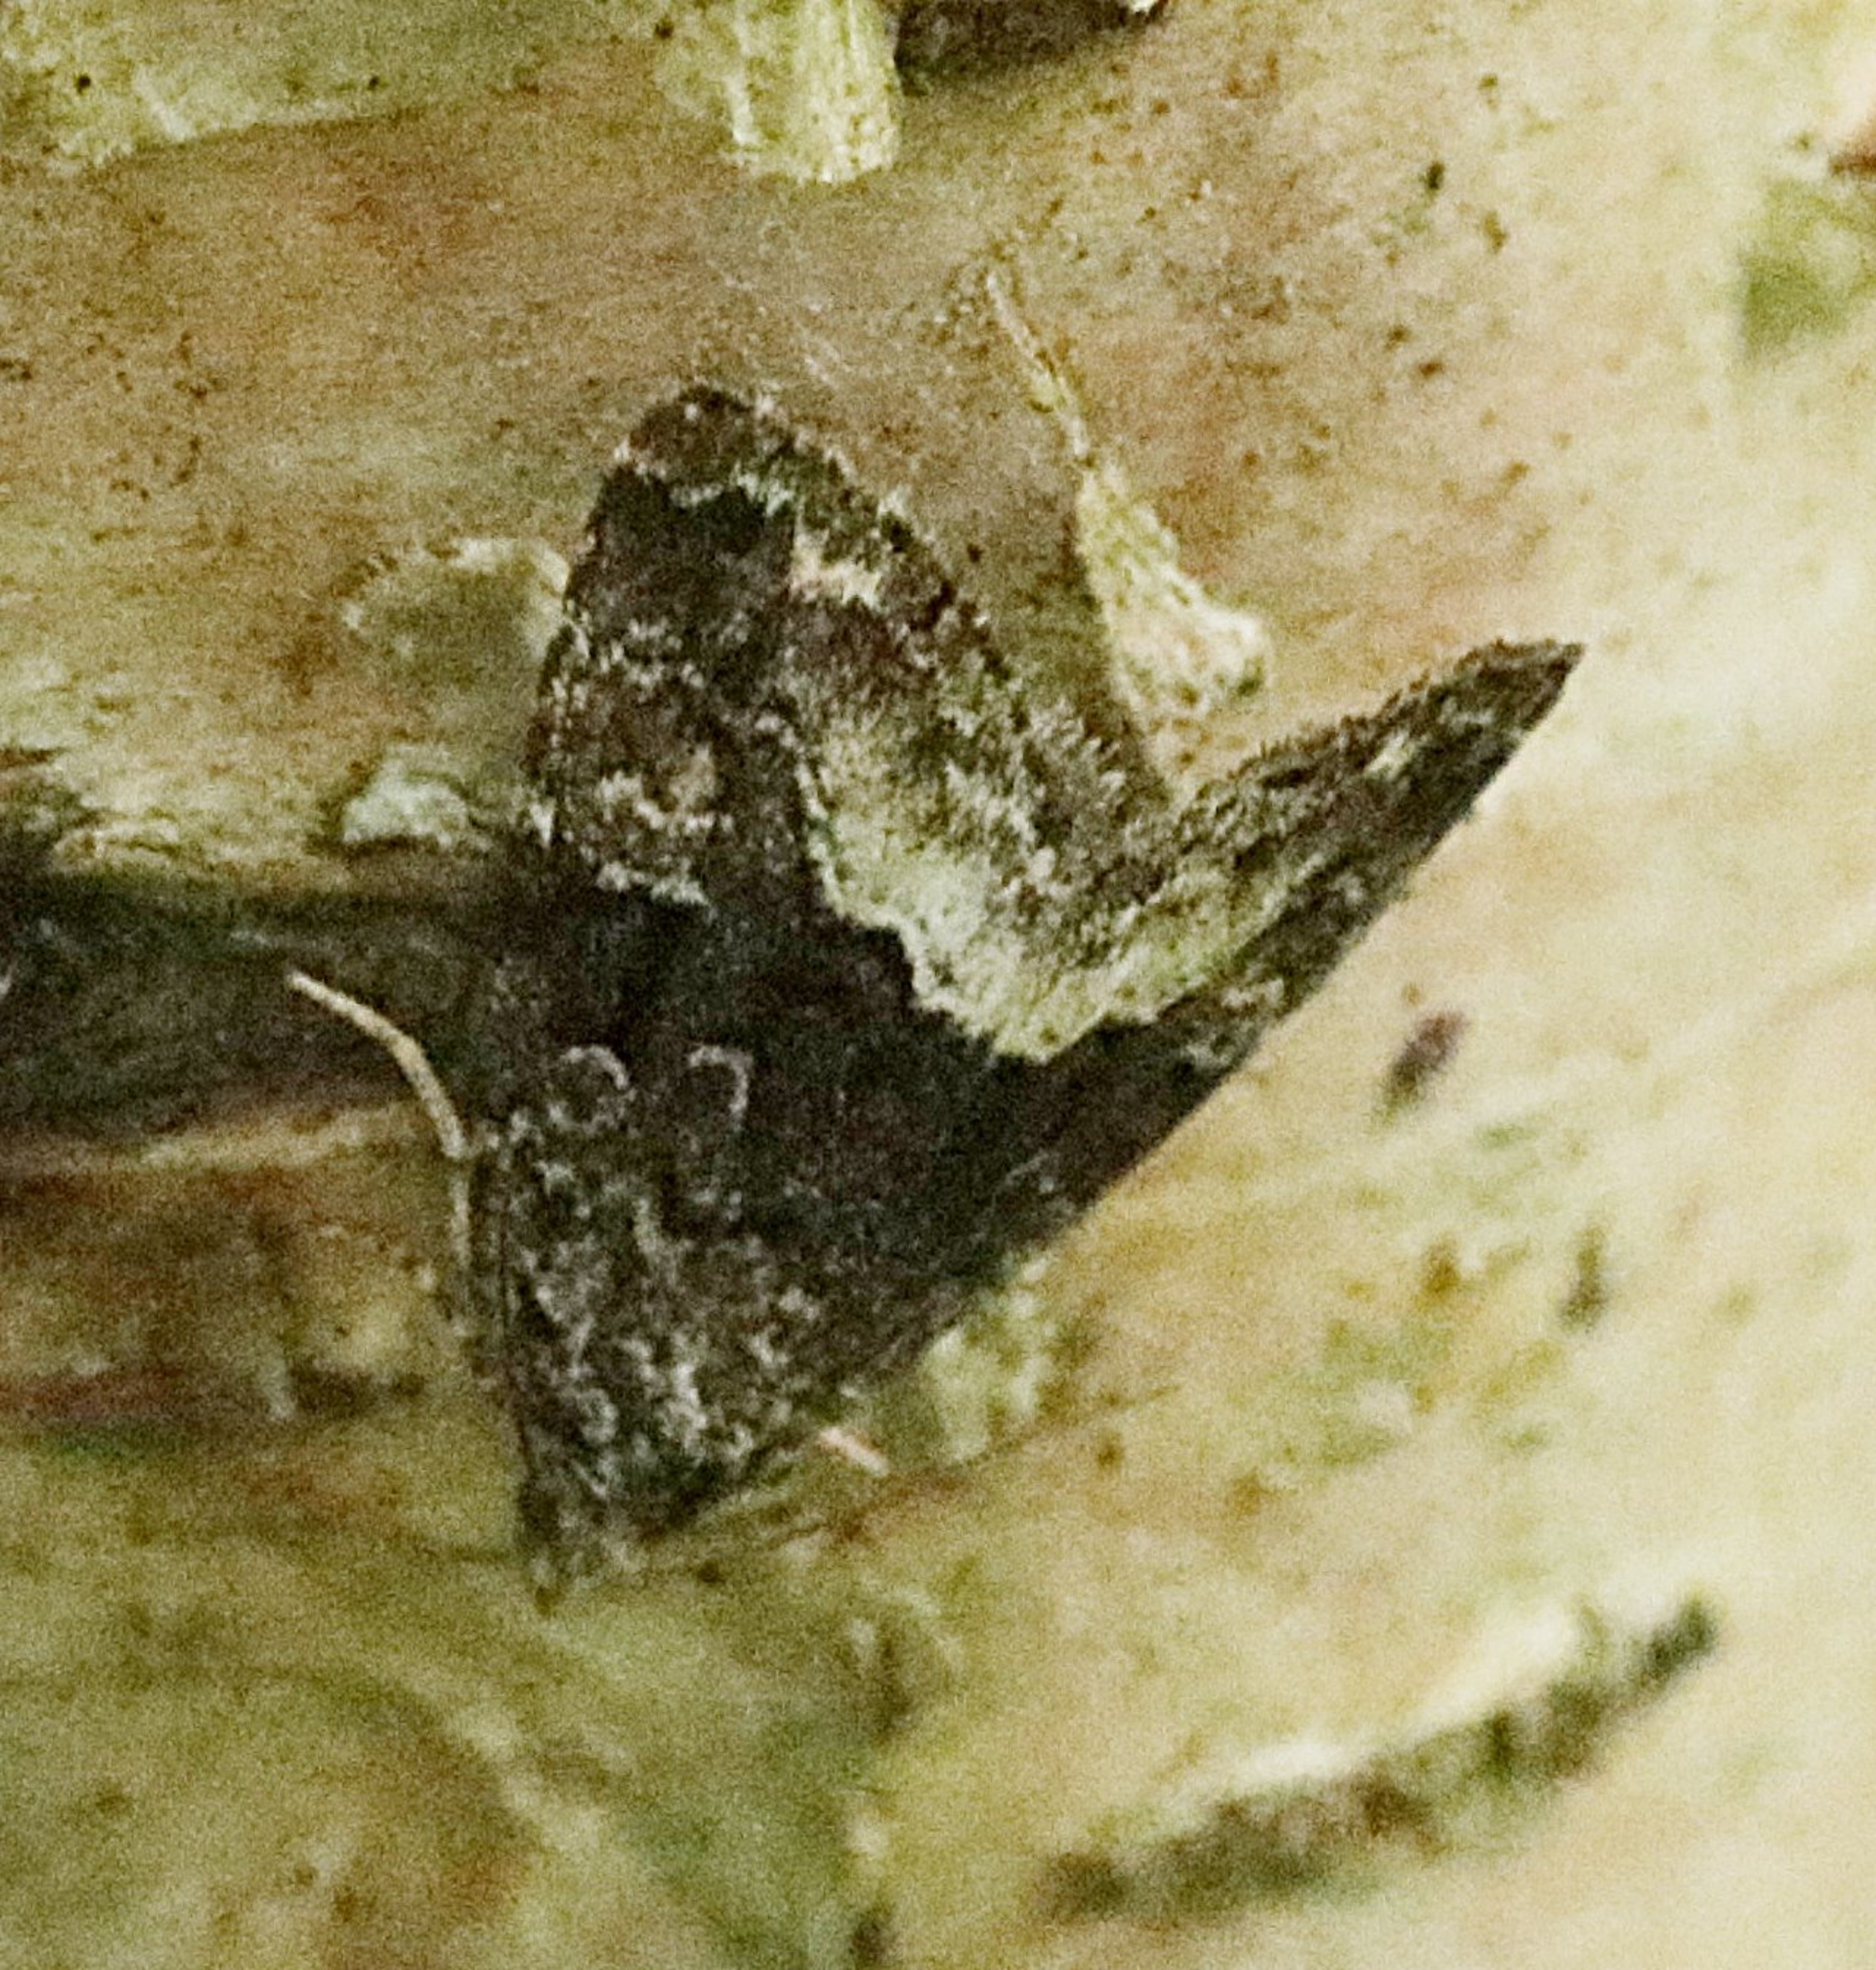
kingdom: Animalia
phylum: Arthropoda
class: Insecta
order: Lepidoptera
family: Noctuidae
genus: Deltote
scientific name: Deltote pygarga
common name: Hvidhjørnet dagugle
